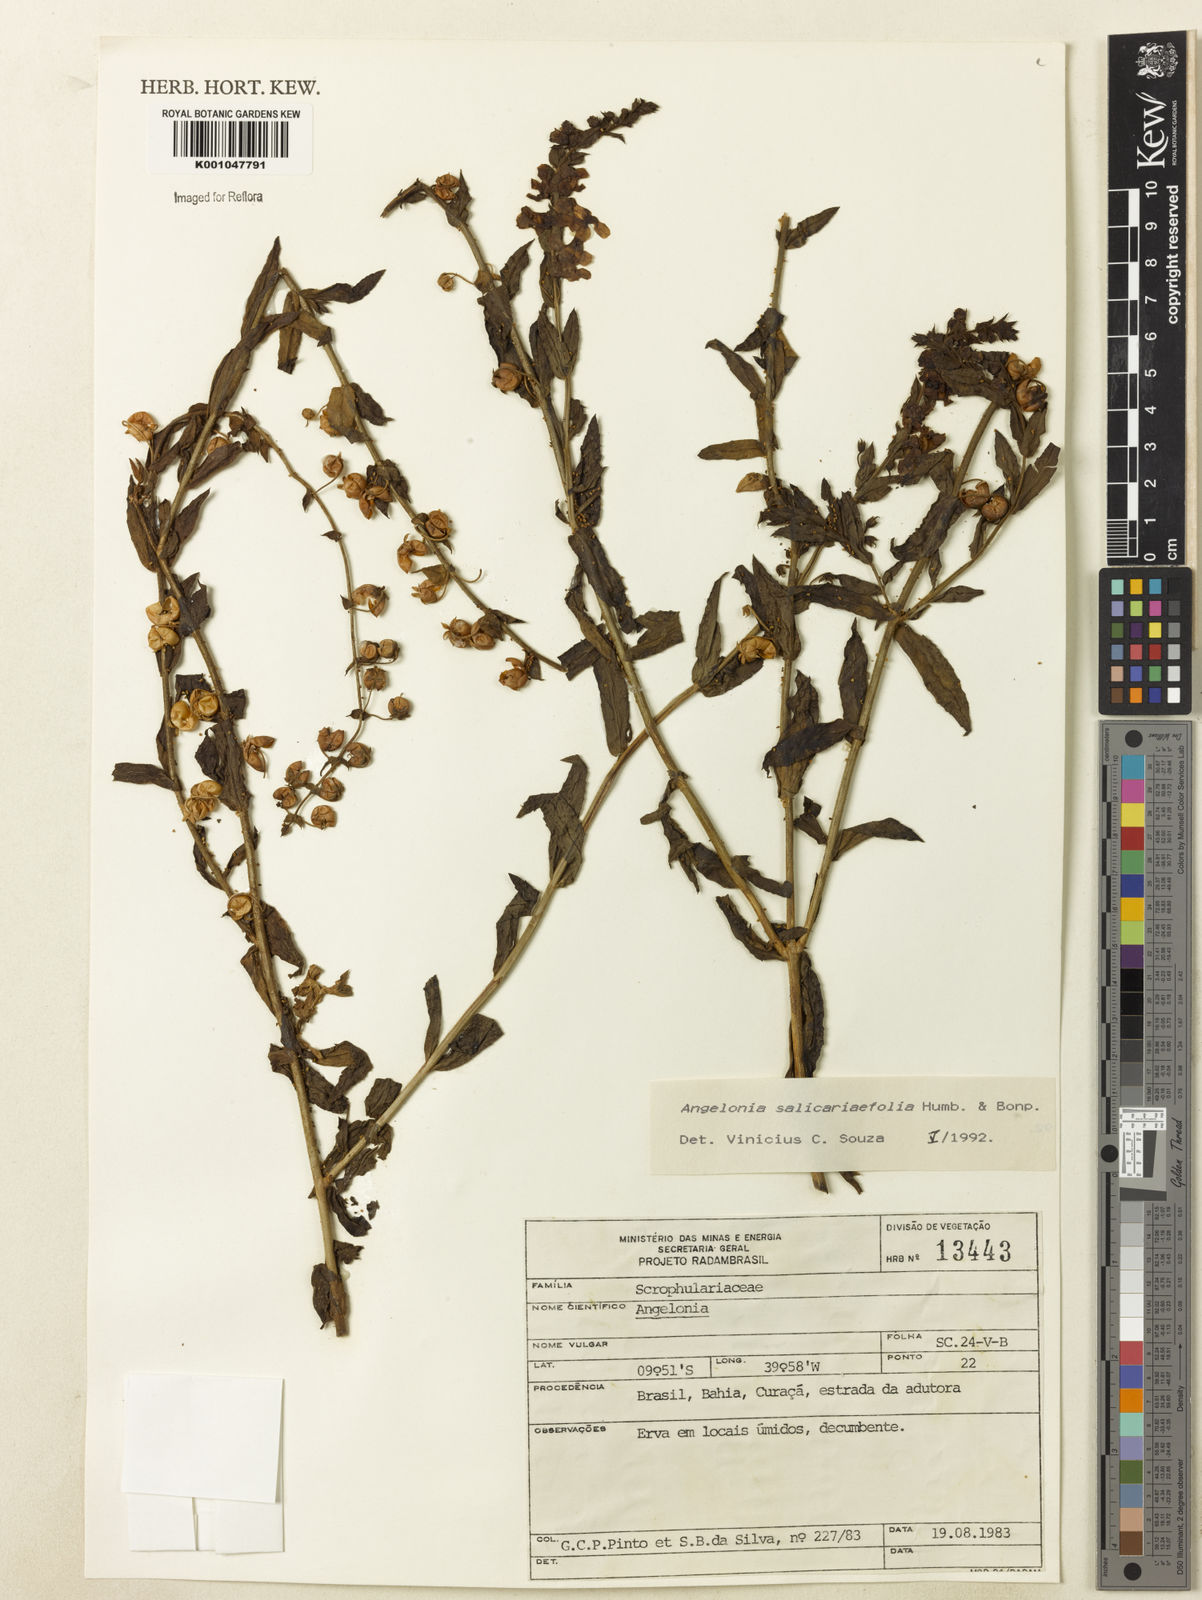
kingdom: Plantae
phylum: Tracheophyta
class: Magnoliopsida
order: Lamiales
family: Plantaginaceae
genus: Angelonia
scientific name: Angelonia salicariifolia
